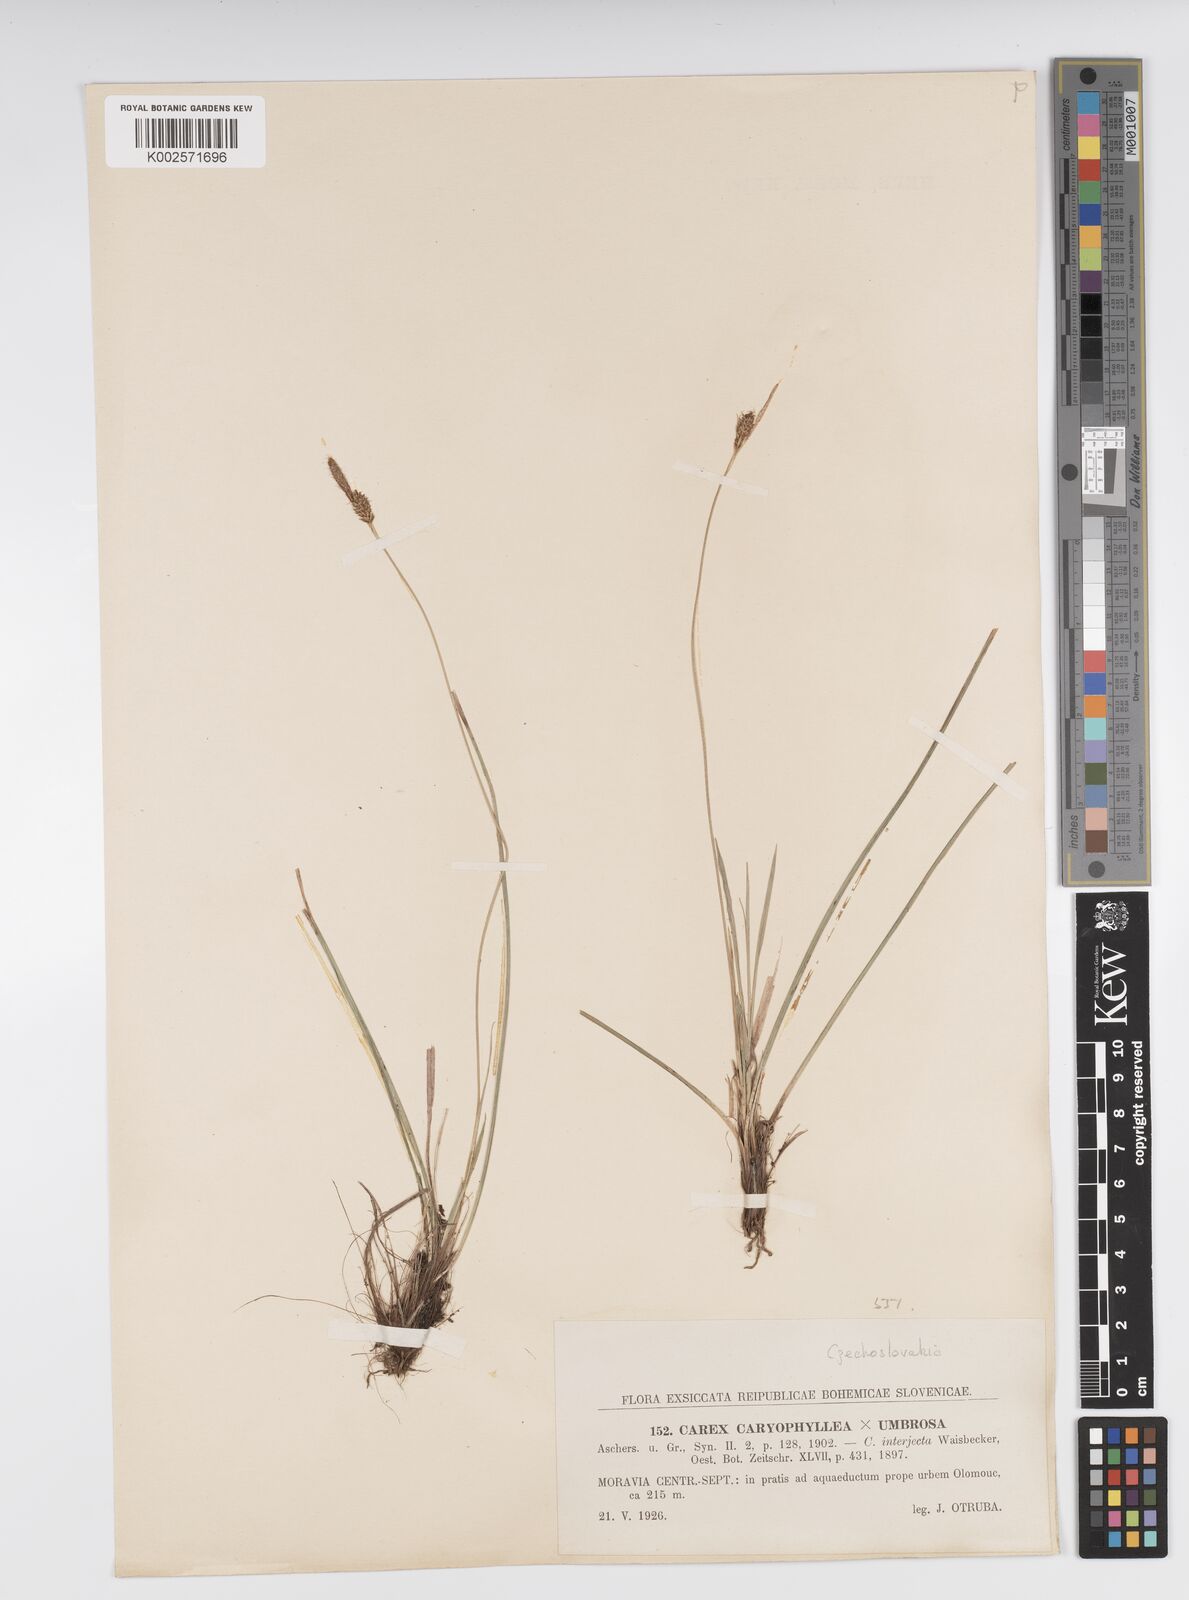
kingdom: Plantae
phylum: Tracheophyta
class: Liliopsida
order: Poales
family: Cyperaceae
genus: Carex
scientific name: Carex caryophyllea
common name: Spring sedge
